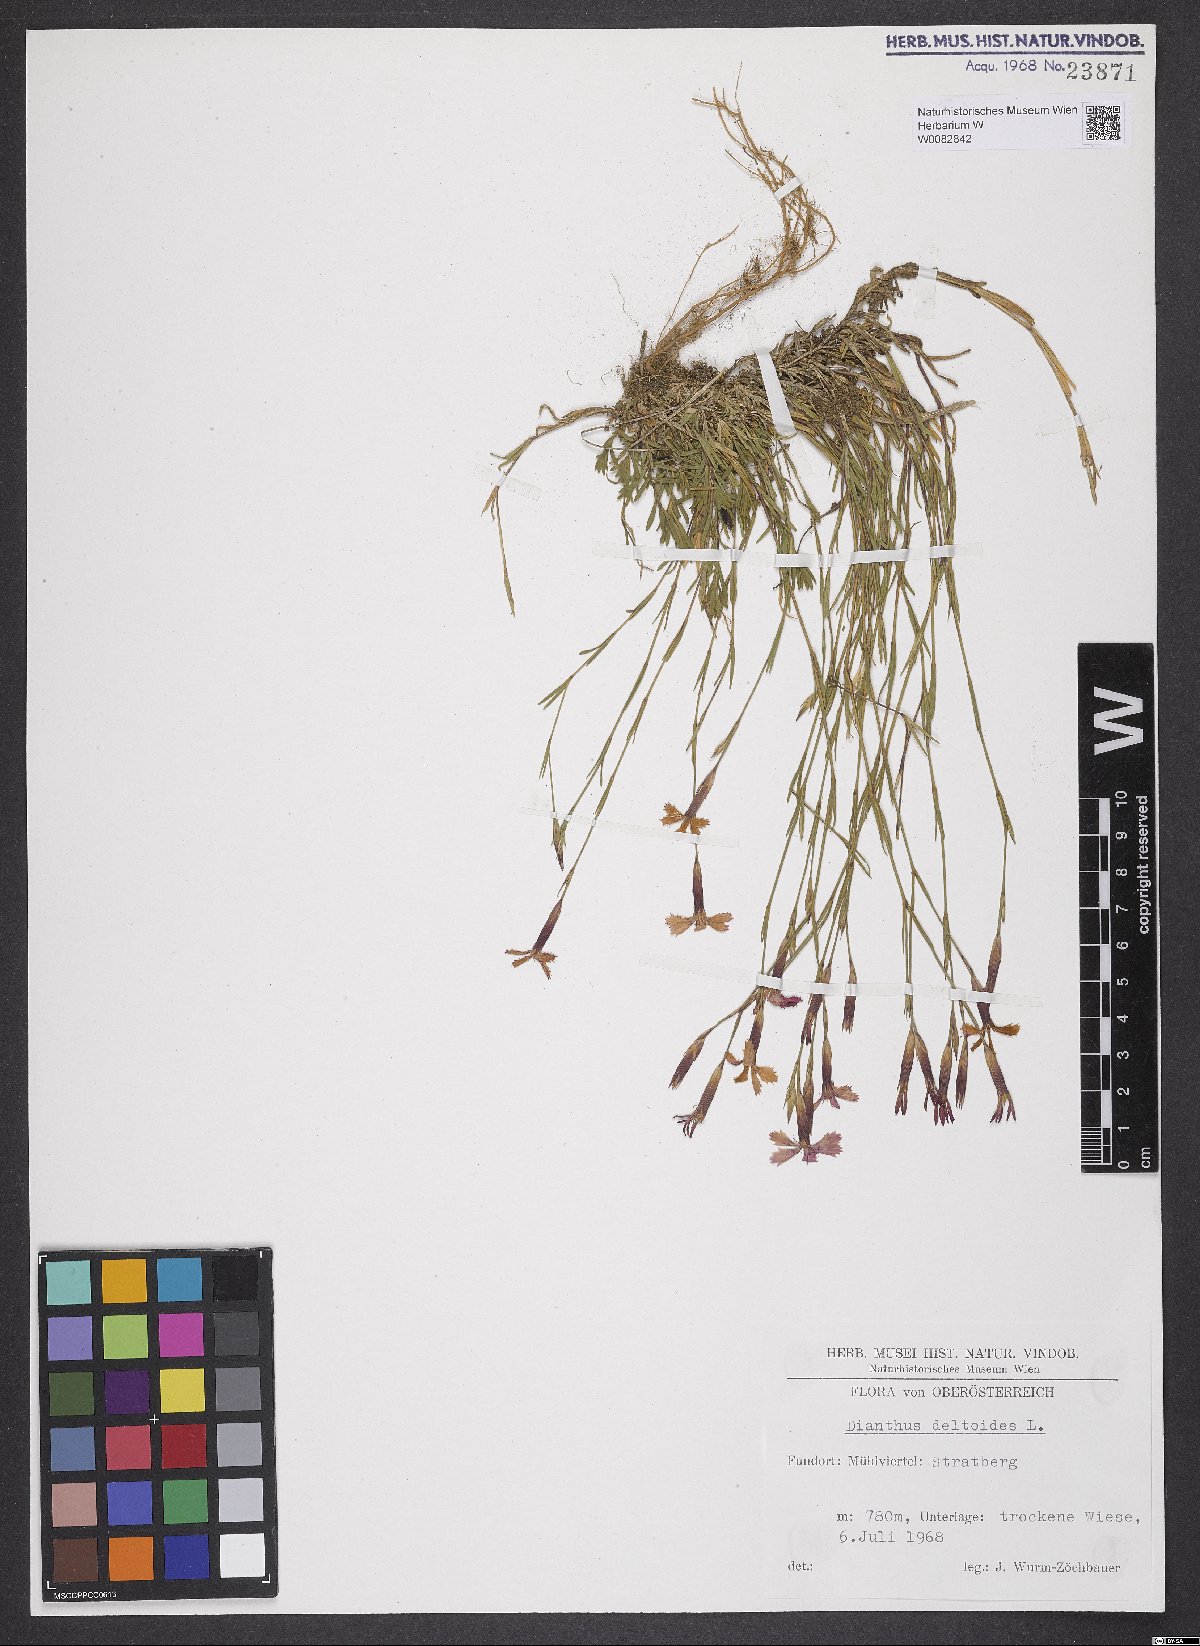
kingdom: Plantae
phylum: Tracheophyta
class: Magnoliopsida
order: Caryophyllales
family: Caryophyllaceae
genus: Dianthus
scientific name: Dianthus deltoides
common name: Maiden pink
